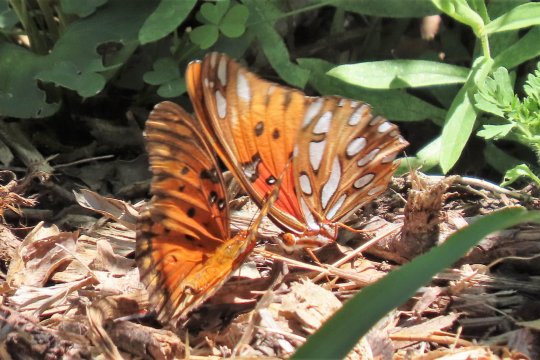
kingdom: Animalia
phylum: Arthropoda
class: Insecta
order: Lepidoptera
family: Nymphalidae
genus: Dione
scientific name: Dione vanillae
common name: Gulf Fritillary
